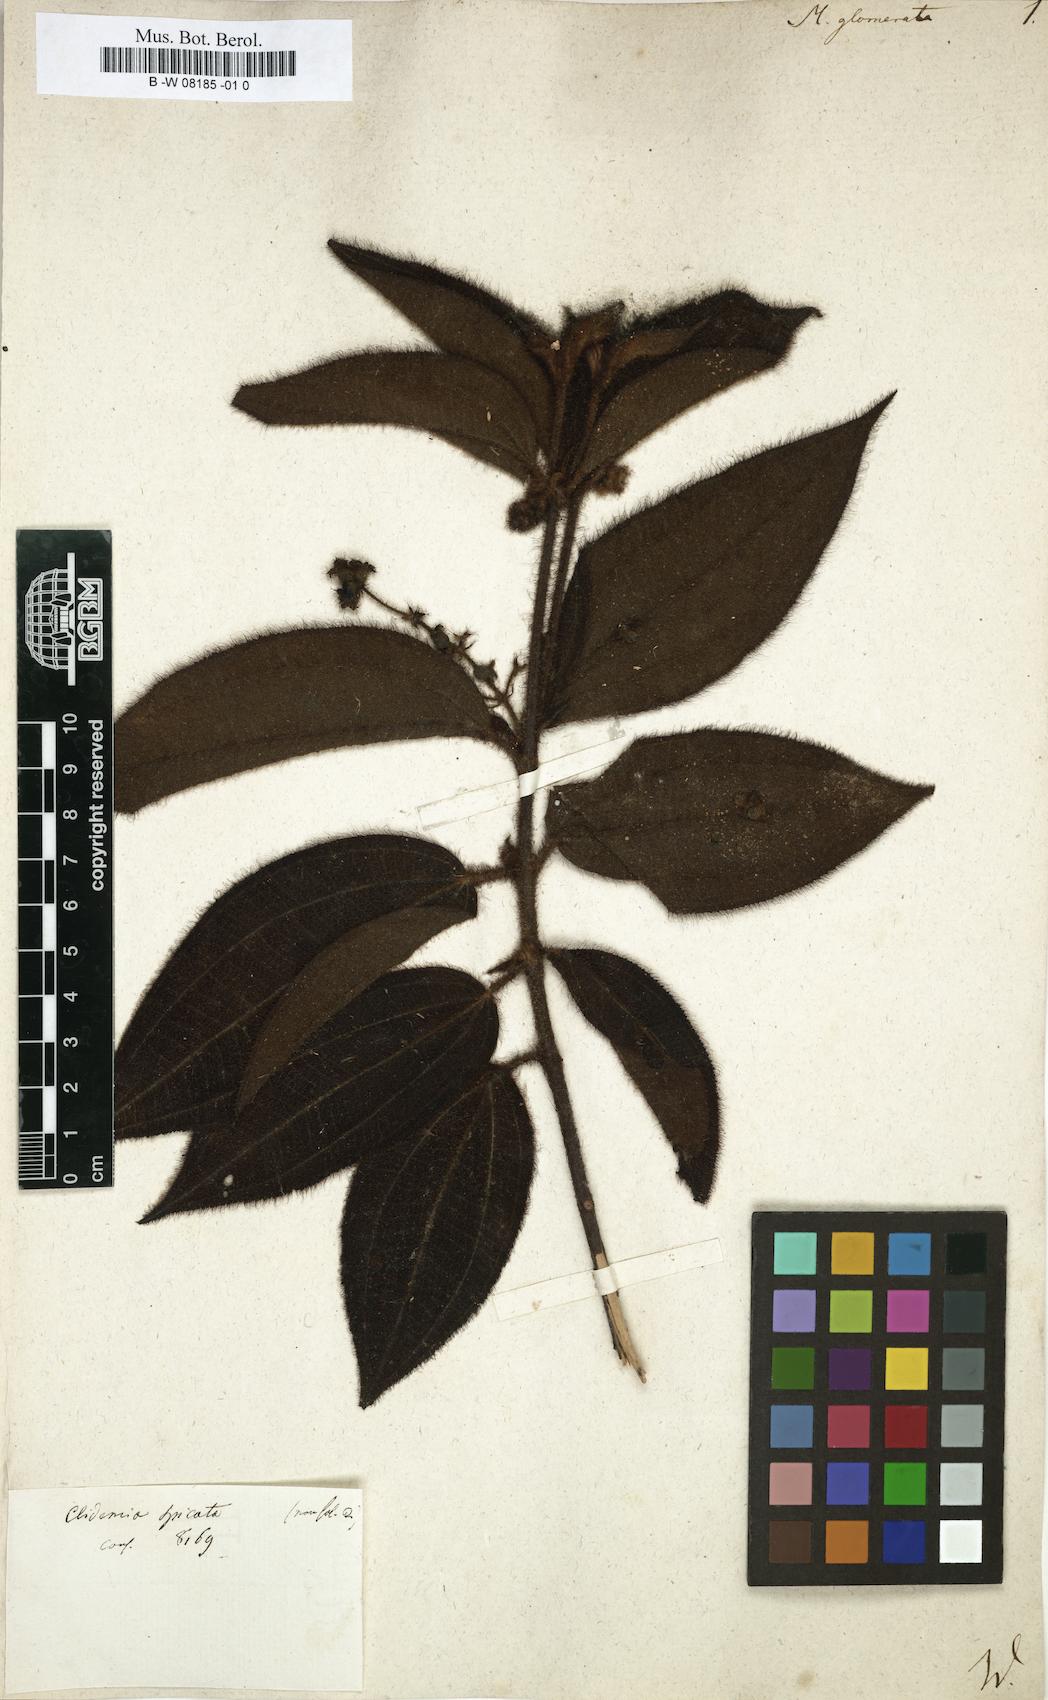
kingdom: Plantae
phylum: Tracheophyta
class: Magnoliopsida
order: Myrtales
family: Melastomataceae
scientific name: Melastomataceae
